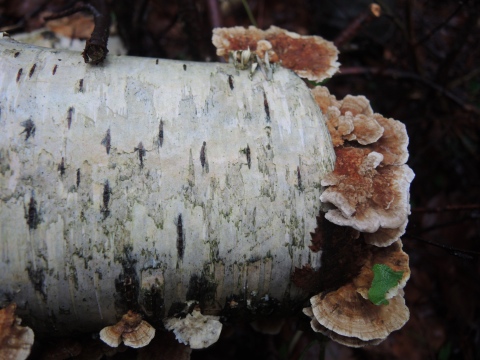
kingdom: Fungi
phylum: Basidiomycota
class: Agaricomycetes
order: Polyporales
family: Polyporaceae
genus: Trametes
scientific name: Trametes ochracea
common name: bæltet læderporesvamp
